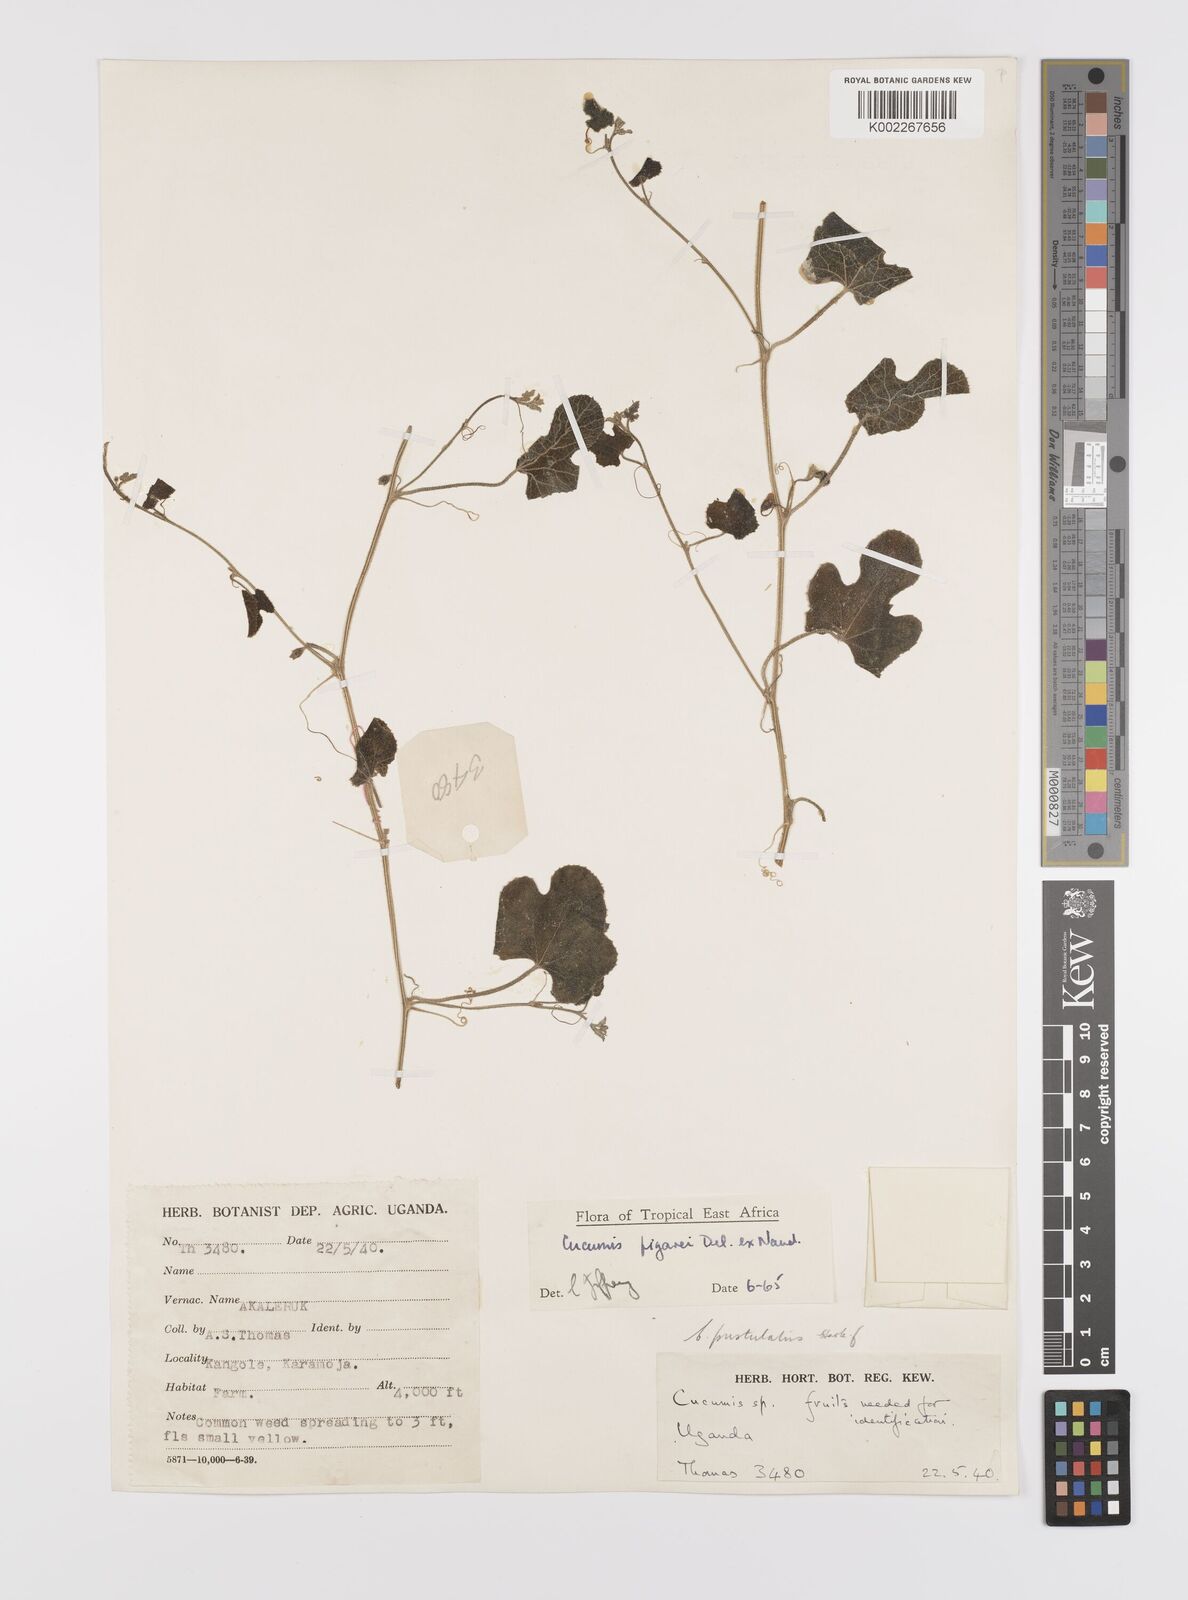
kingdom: Plantae
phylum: Tracheophyta
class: Magnoliopsida
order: Cucurbitales
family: Cucurbitaceae
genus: Cucumis
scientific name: Cucumis pustulatus
